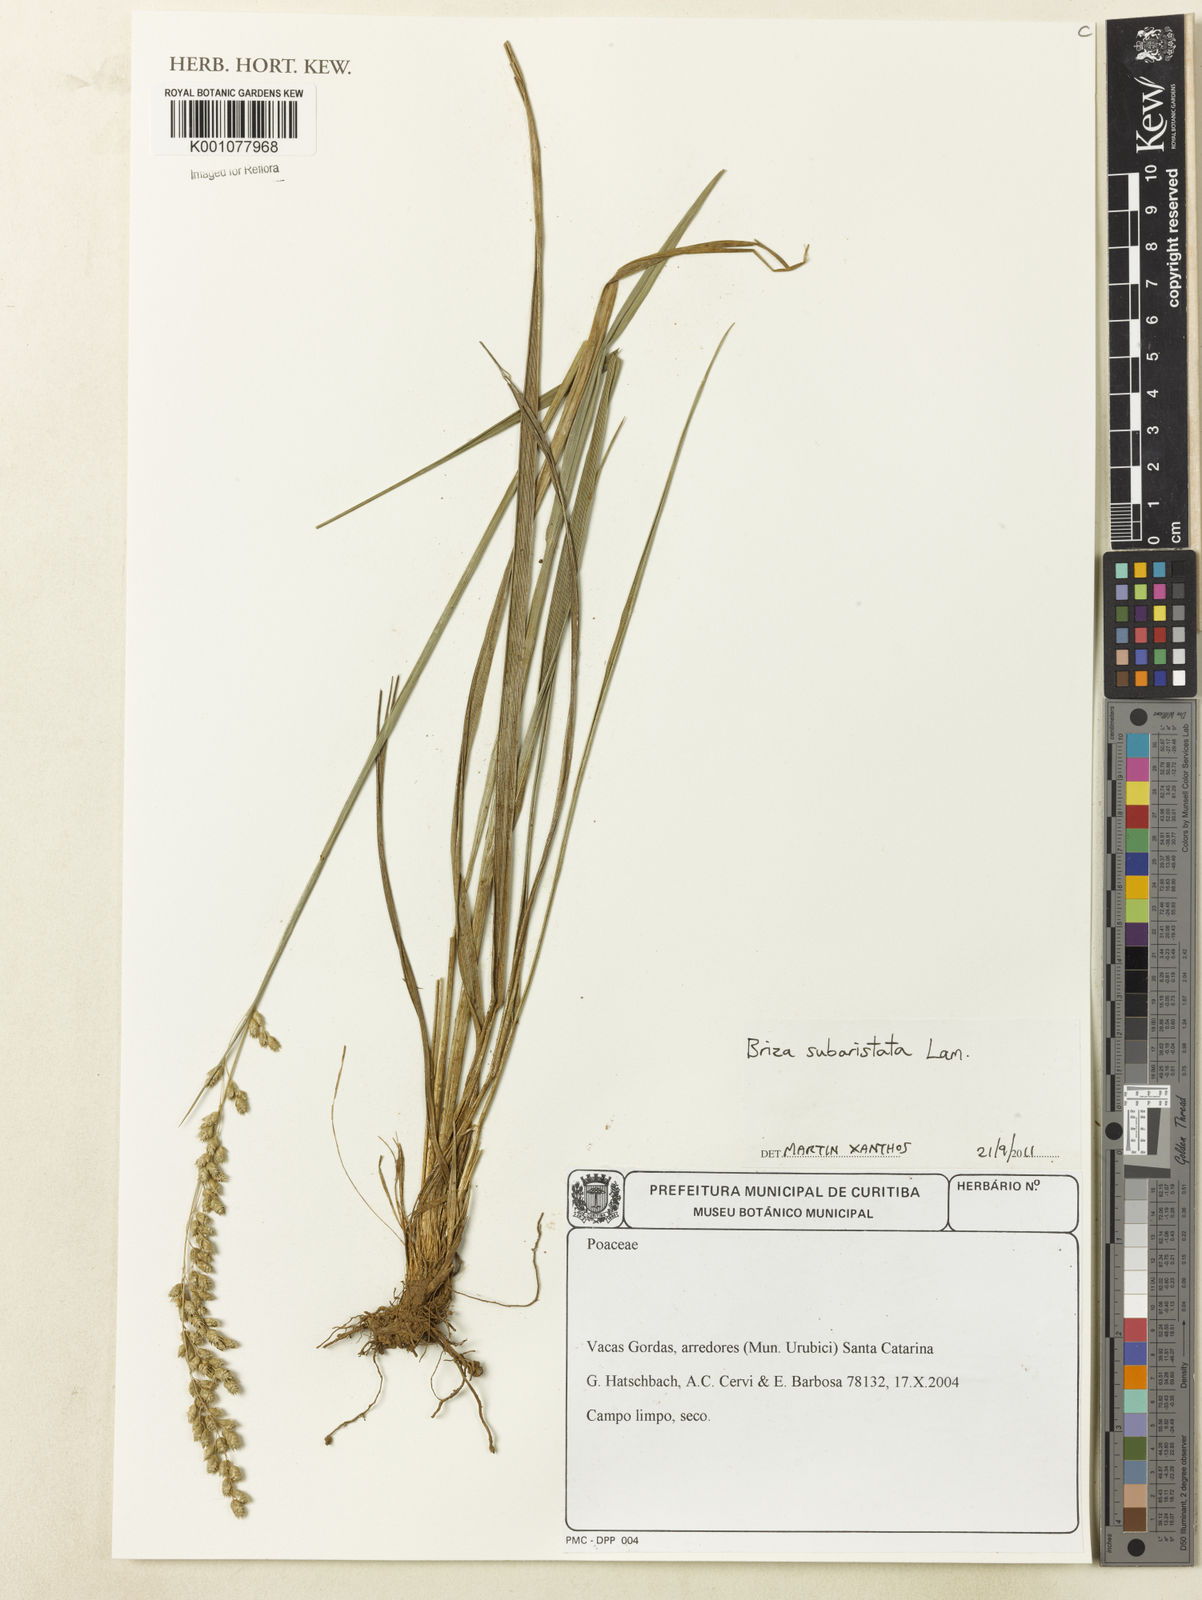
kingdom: Plantae
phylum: Tracheophyta
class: Liliopsida
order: Poales
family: Poaceae
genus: Briza
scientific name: Briza
